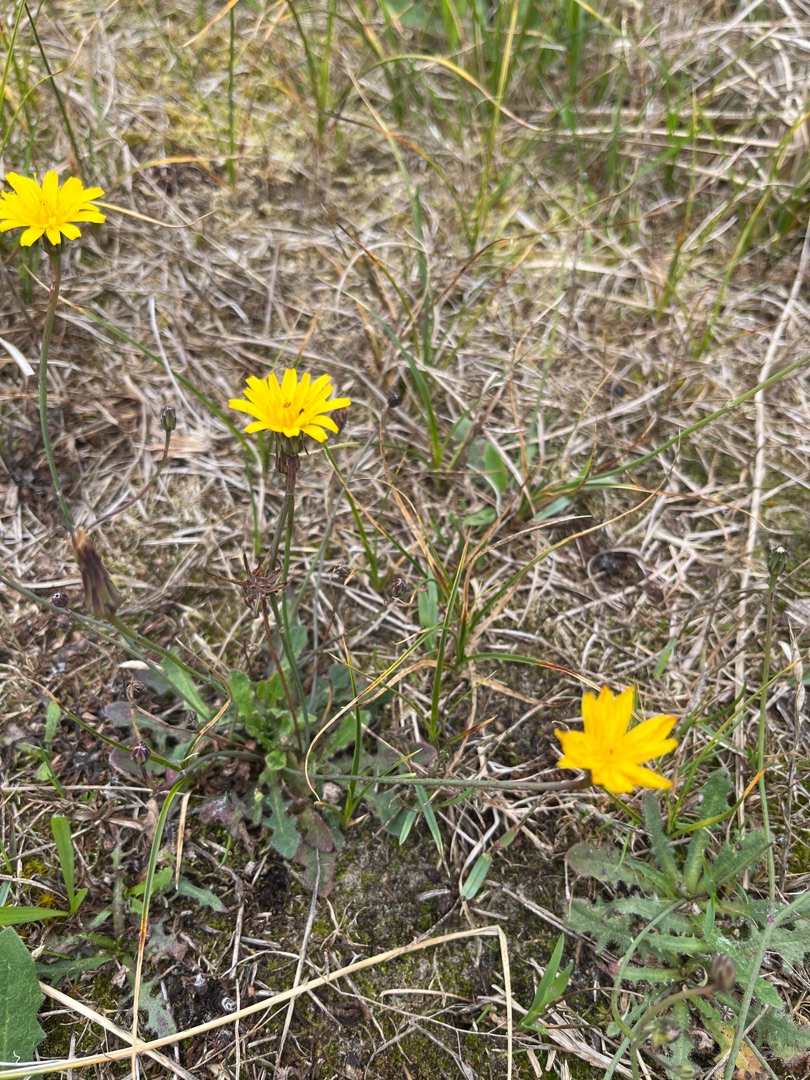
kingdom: Plantae
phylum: Tracheophyta
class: Magnoliopsida
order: Asterales
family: Asteraceae
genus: Hypochaeris
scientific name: Hypochaeris radicata
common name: Almindelig kongepen
